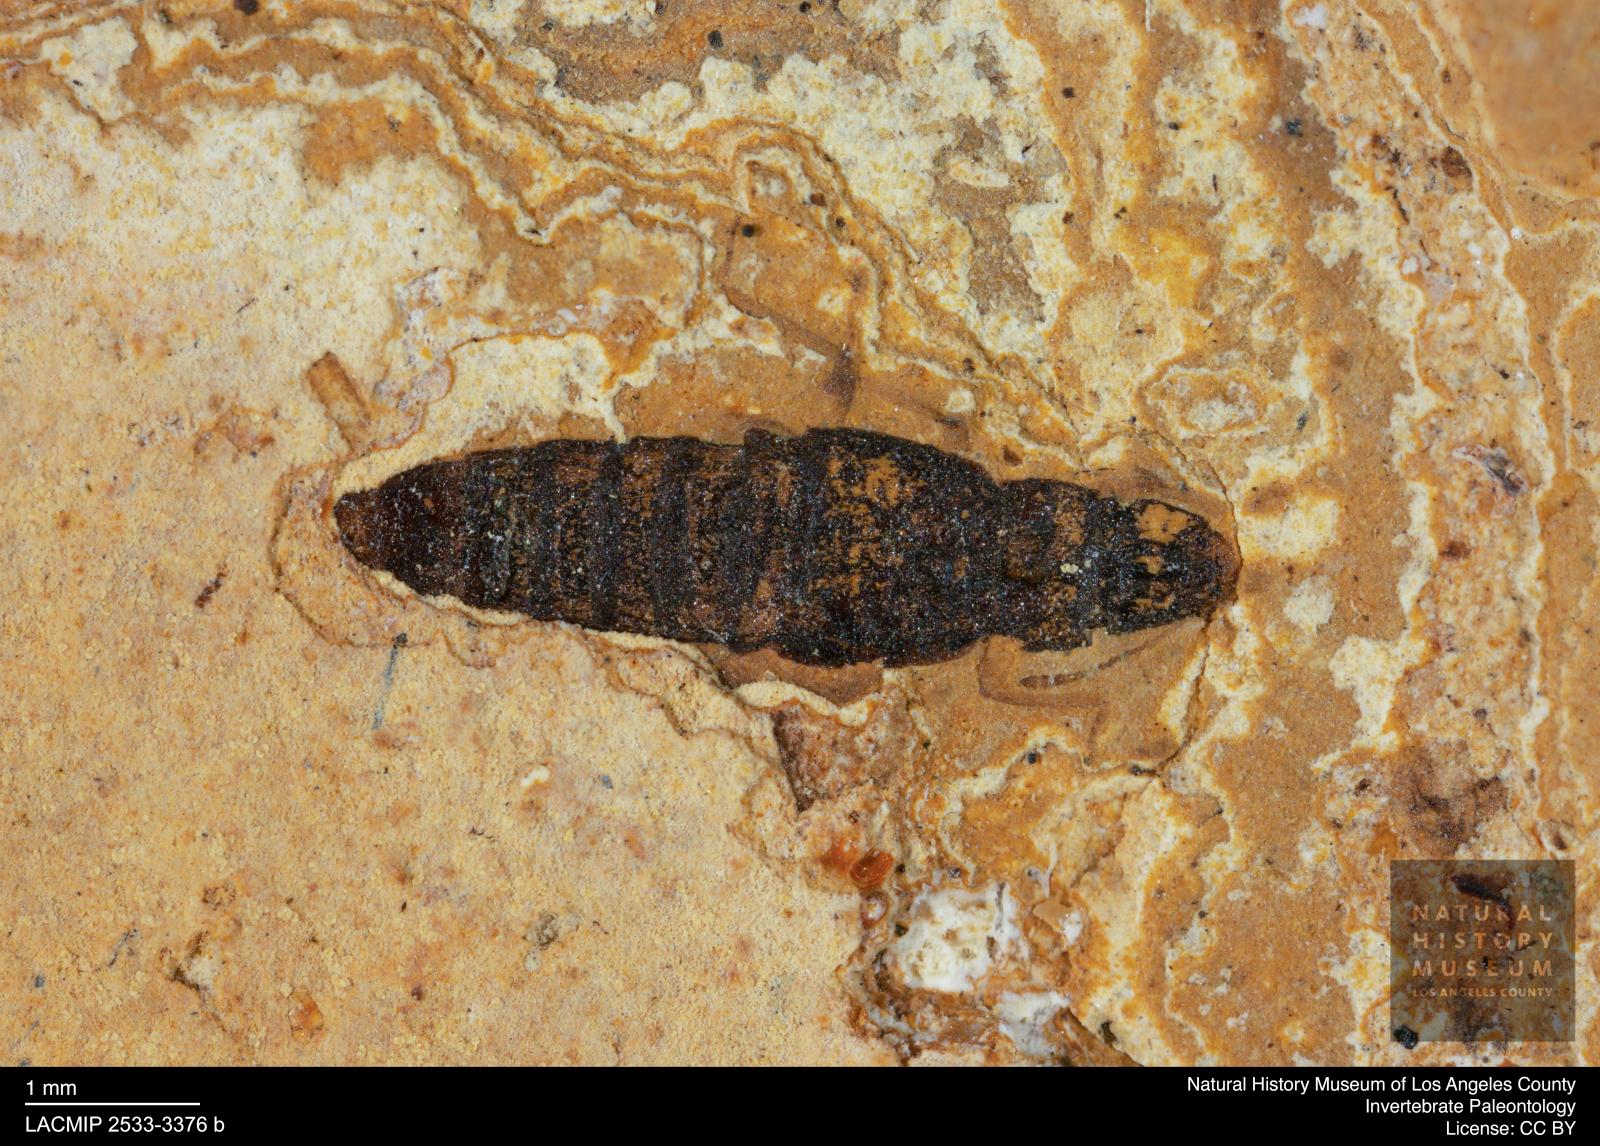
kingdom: Animalia
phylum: Arthropoda
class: Insecta
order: Coleoptera
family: Staphylinidae
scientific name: Staphylinidae
